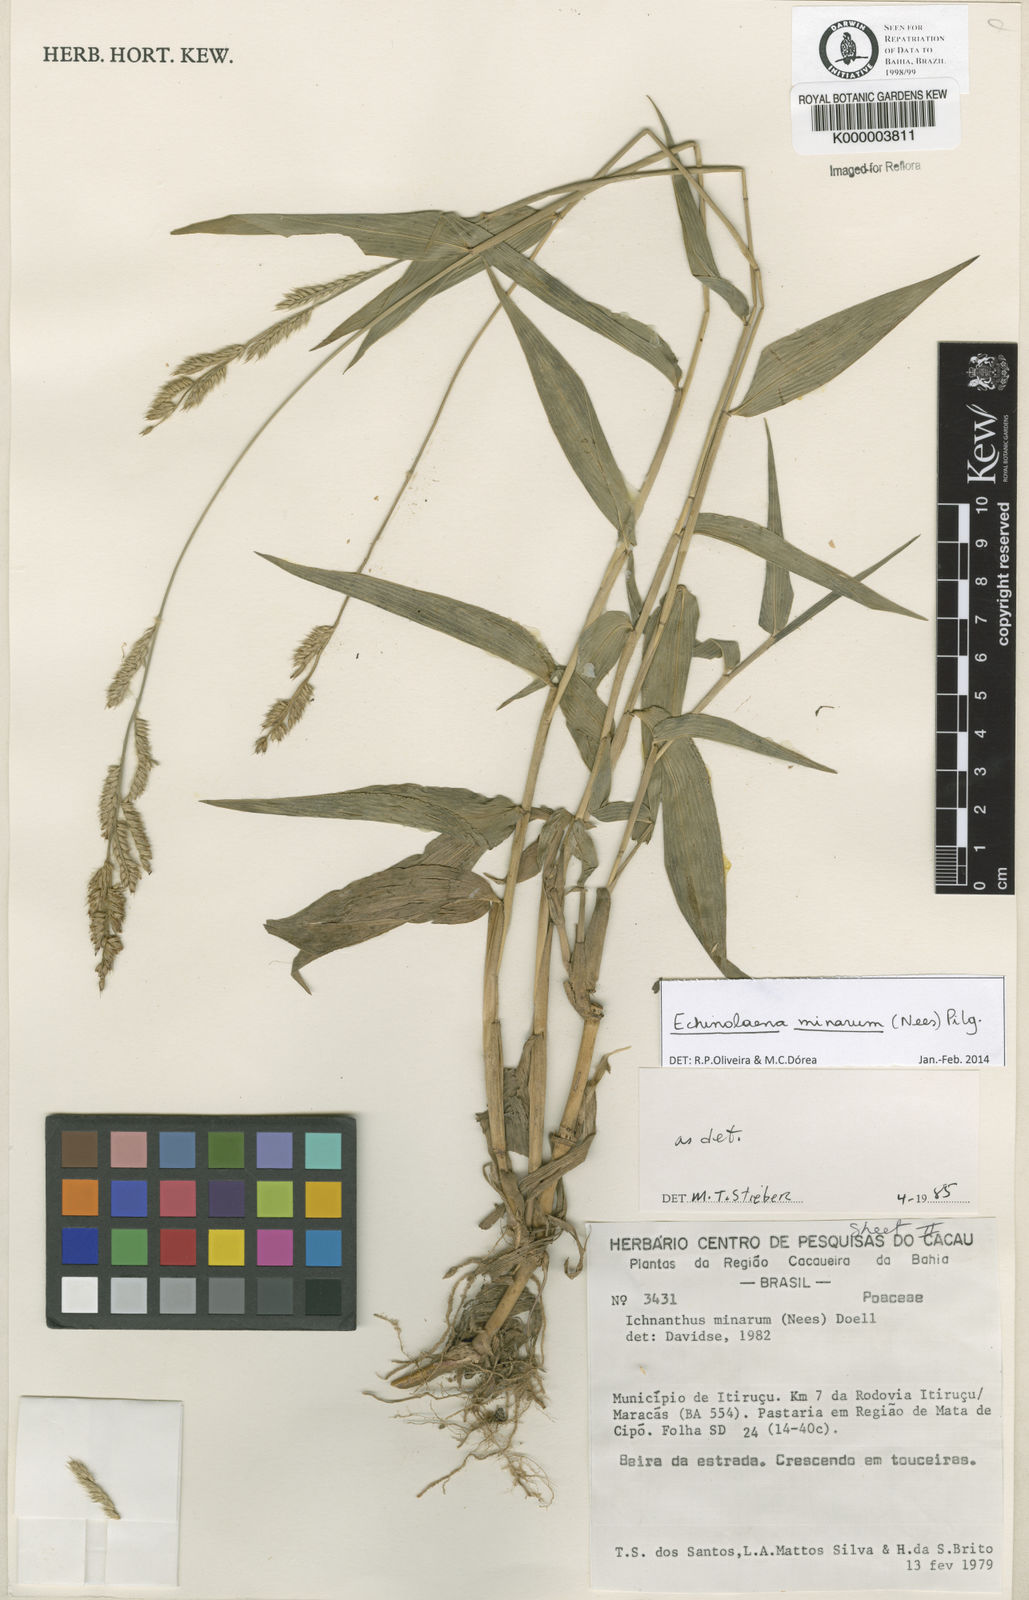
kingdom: Plantae
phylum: Tracheophyta
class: Liliopsida
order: Poales
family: Poaceae
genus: Echinolaena
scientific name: Echinolaena
